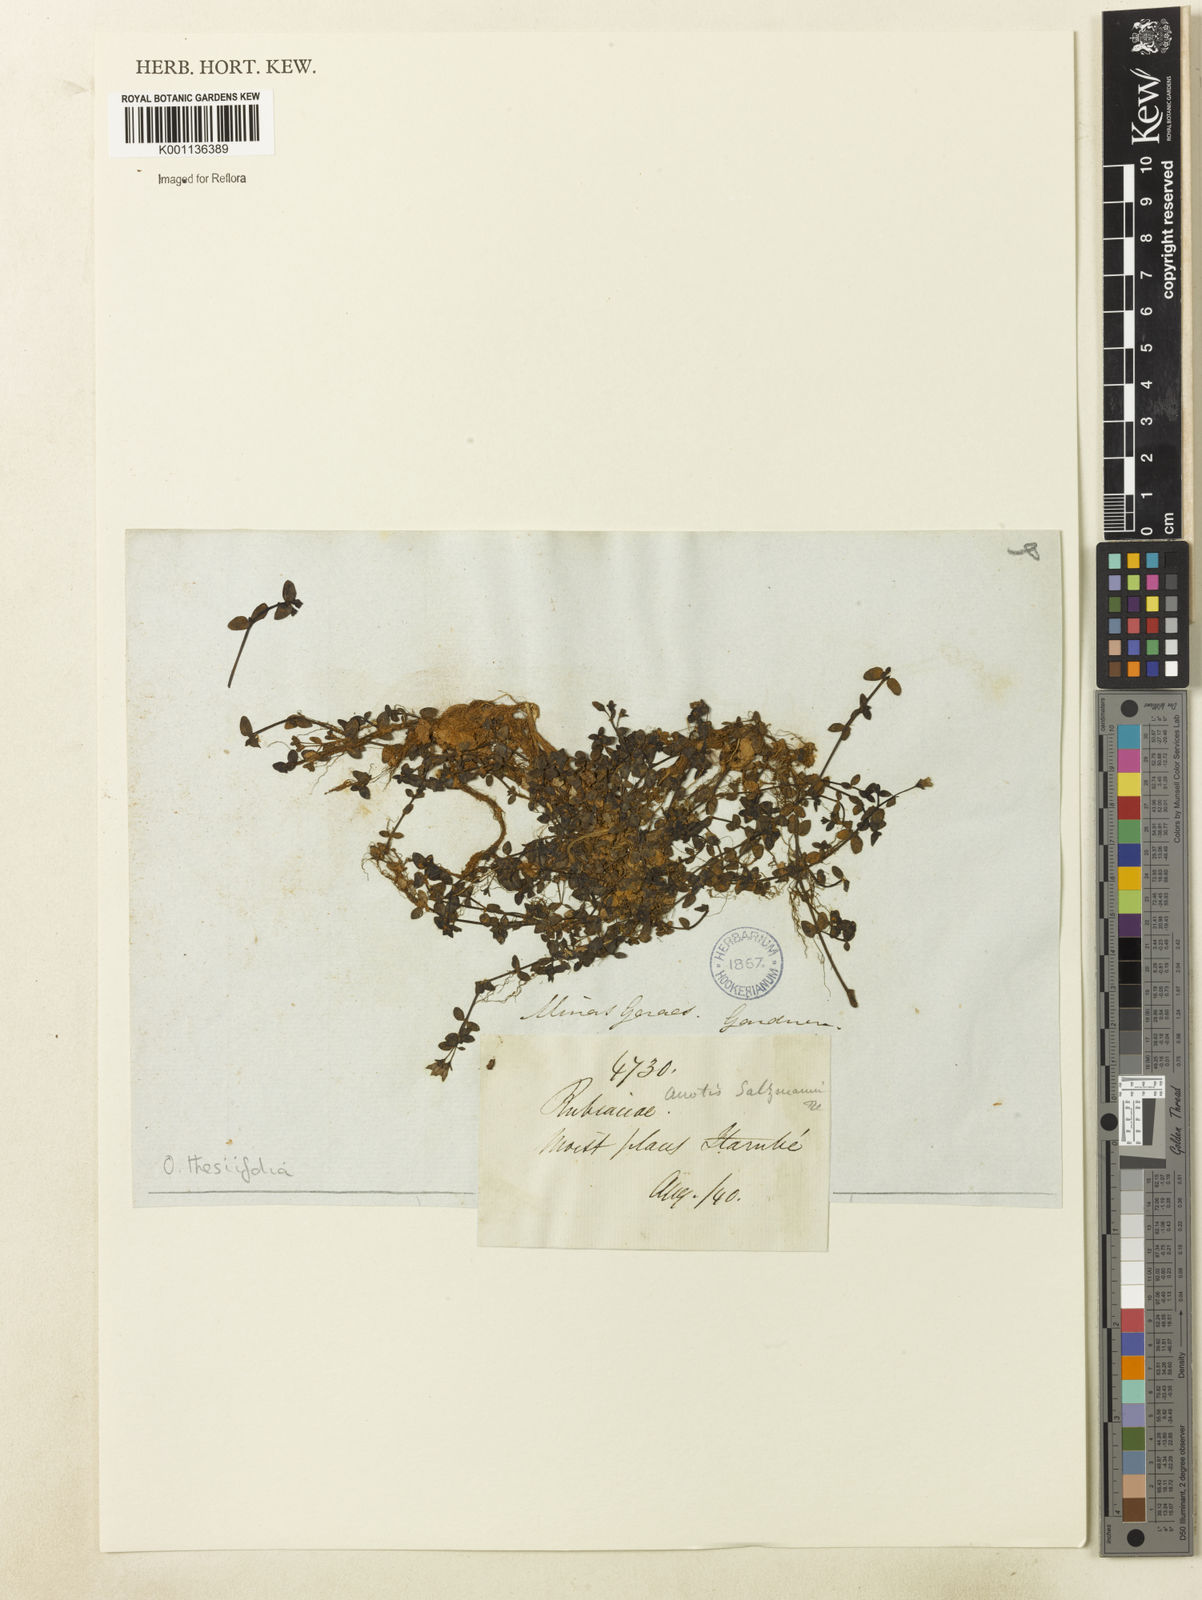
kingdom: Plantae
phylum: Tracheophyta
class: Magnoliopsida
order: Gentianales
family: Rubiaceae
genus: Oldenlandia
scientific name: Oldenlandia salzmannii
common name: Salzmann's mille graines
